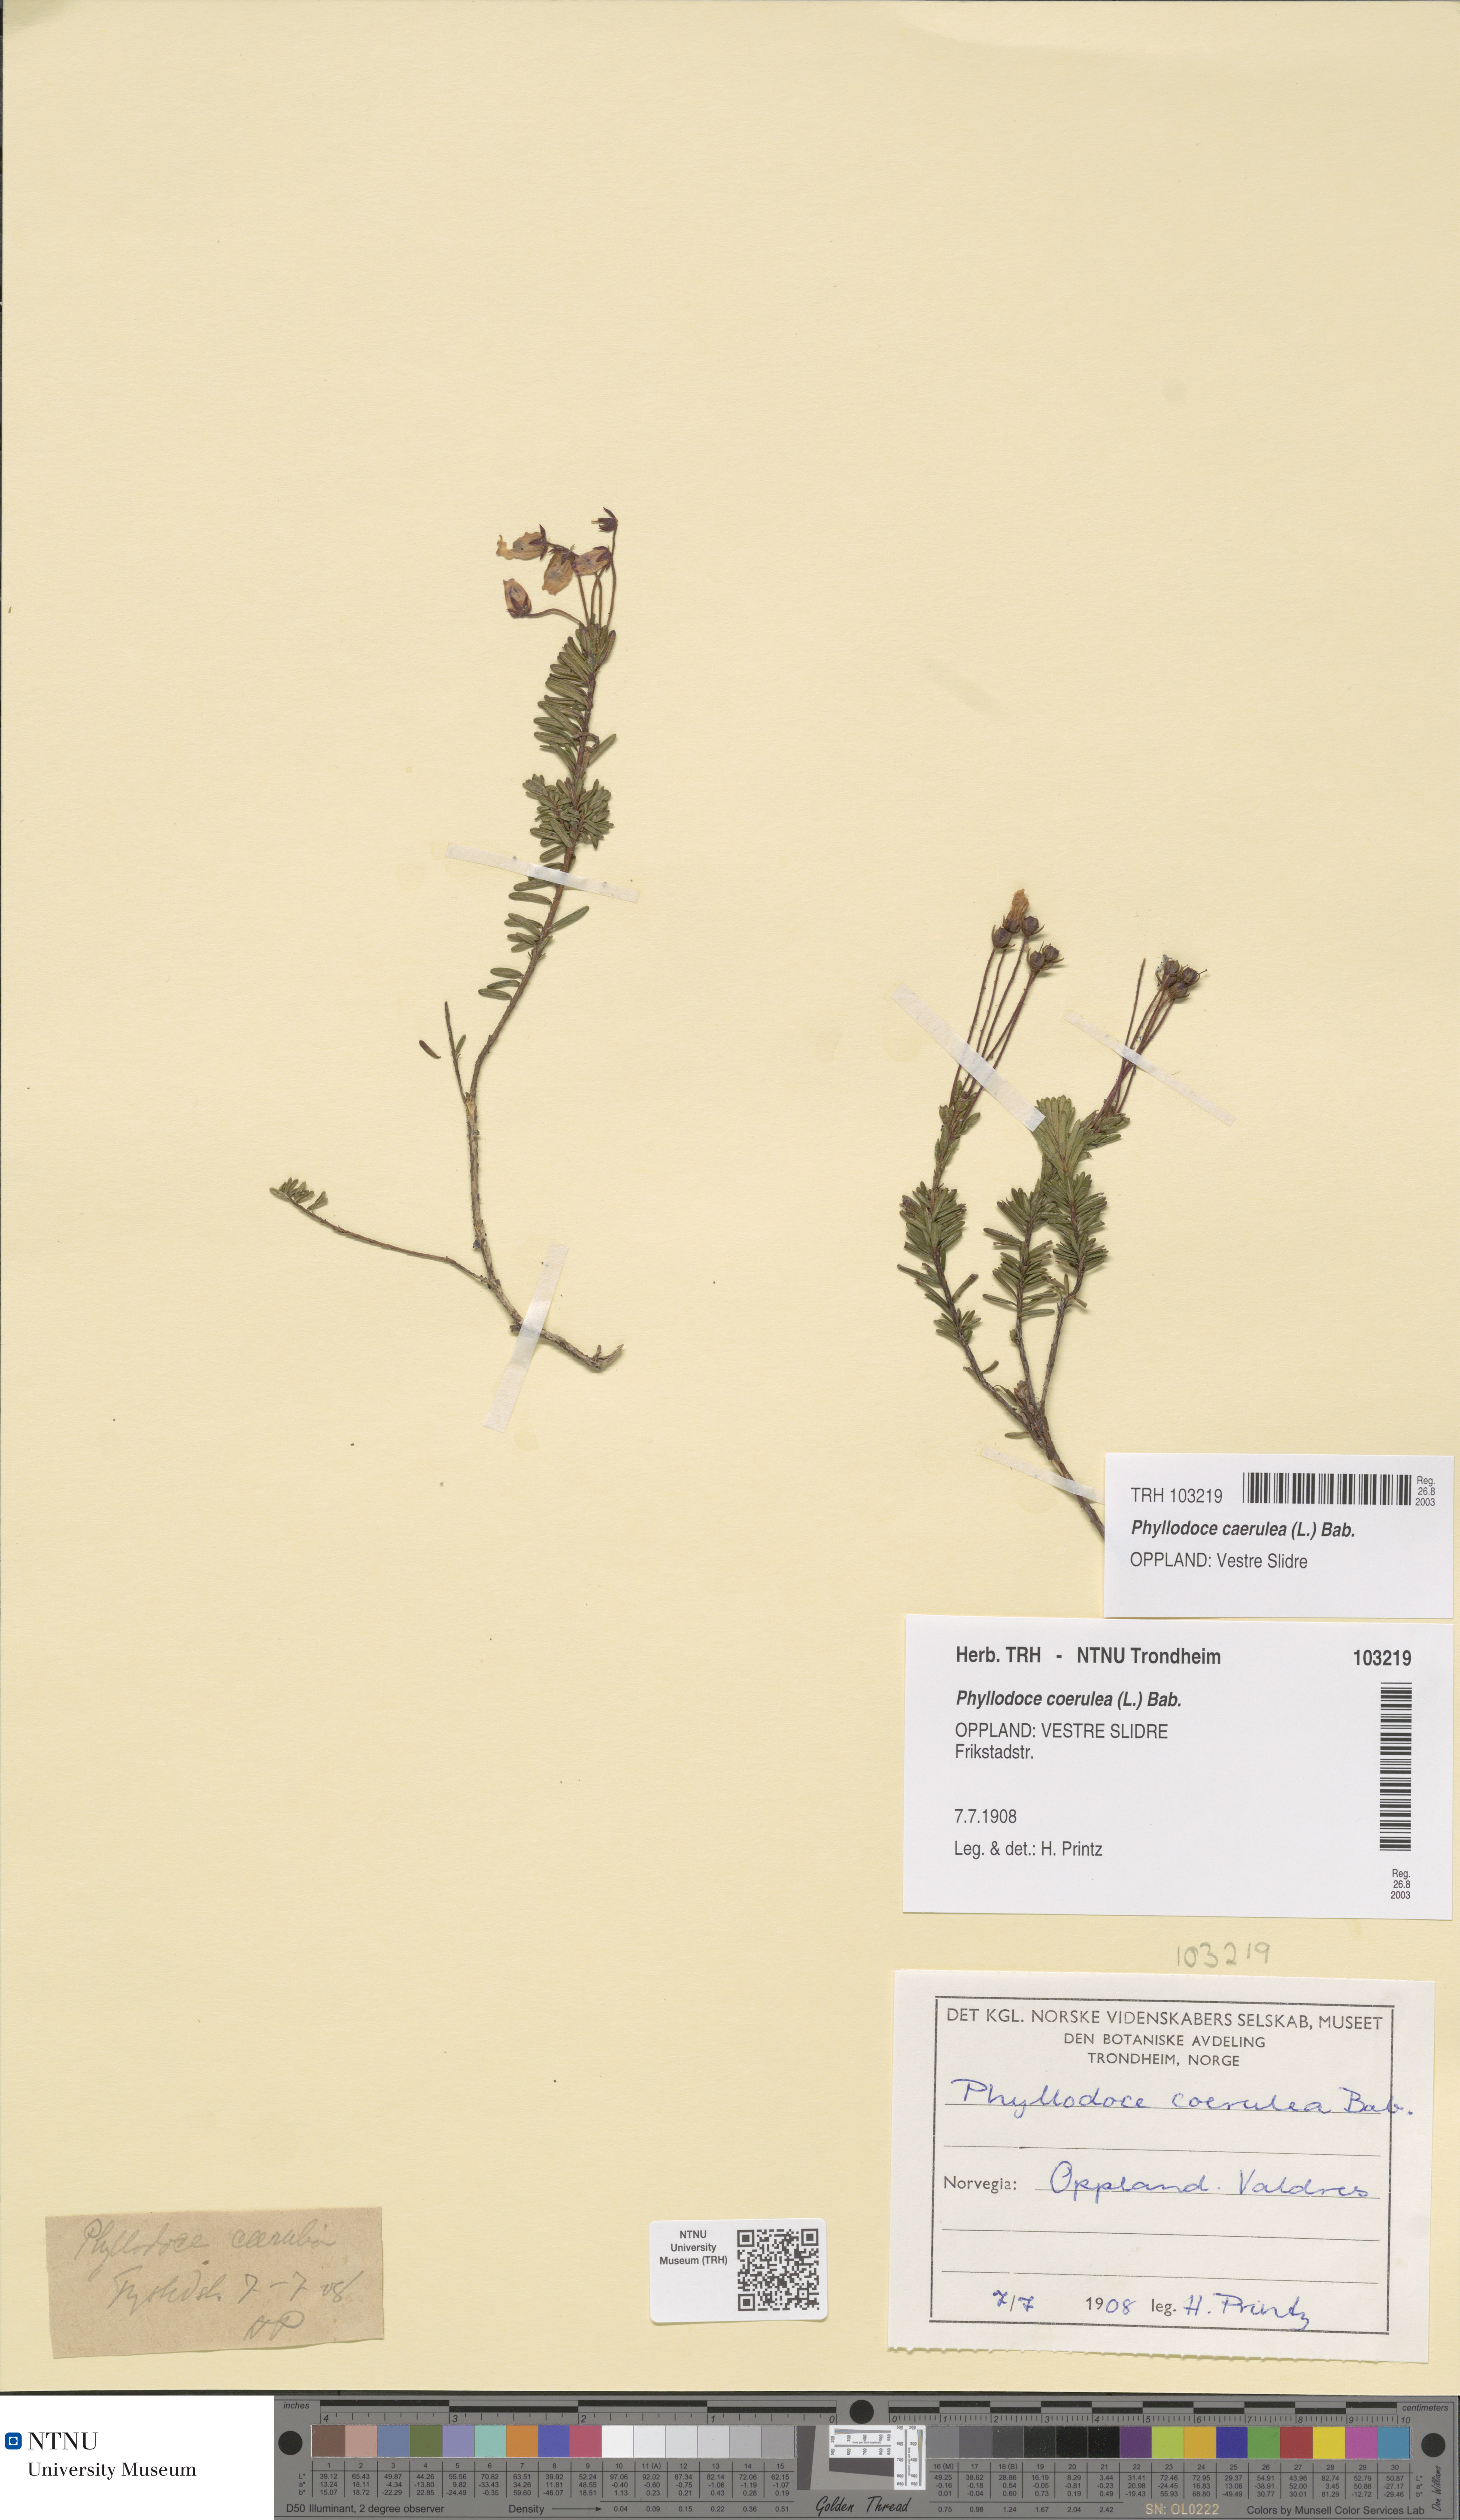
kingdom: Plantae
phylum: Tracheophyta
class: Magnoliopsida
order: Ericales
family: Ericaceae
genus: Phyllodoce
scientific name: Phyllodoce caerulea
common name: Blue heath
